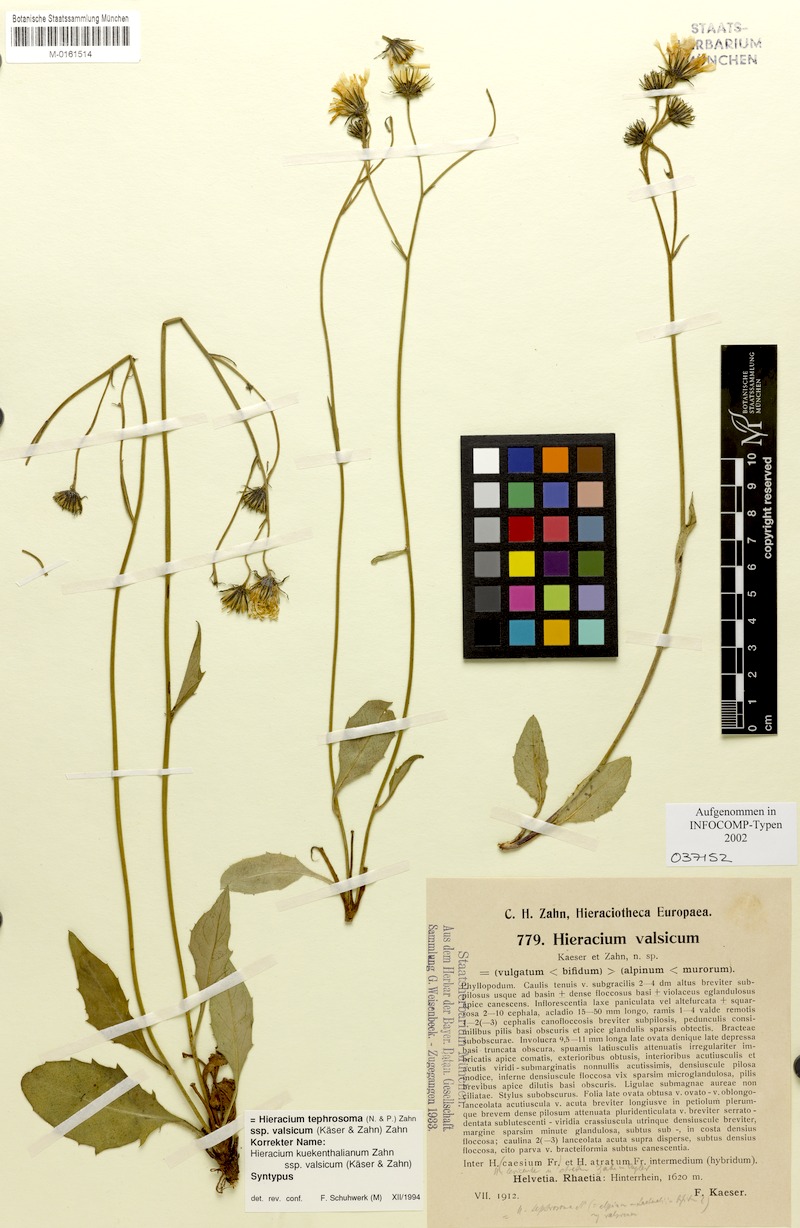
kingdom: Plantae
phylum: Tracheophyta
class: Magnoliopsida
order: Asterales
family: Asteraceae
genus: Hieracium
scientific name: Hieracium tephrosoma
